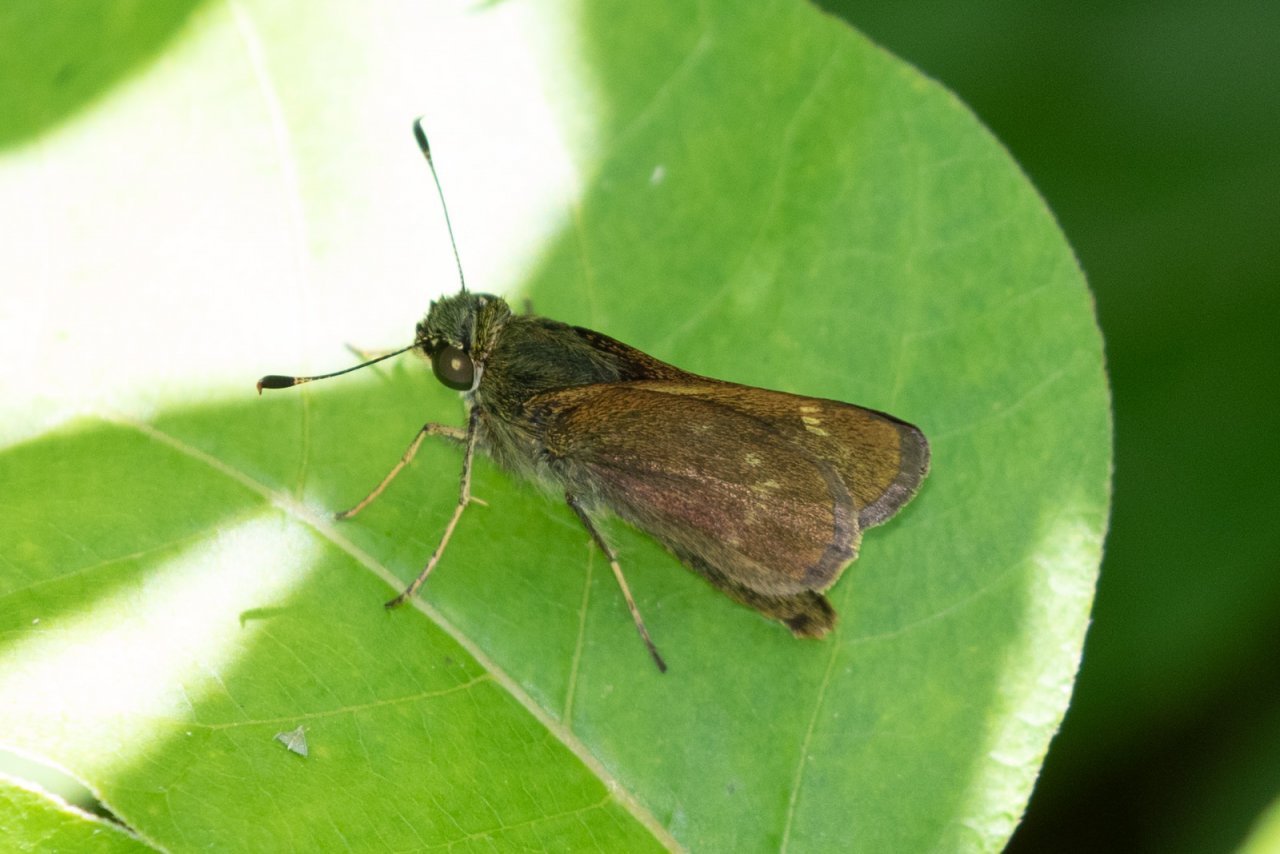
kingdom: Animalia
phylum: Arthropoda
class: Insecta
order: Lepidoptera
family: Hesperiidae
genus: Vernia
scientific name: Vernia verna
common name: Little Glassywing
